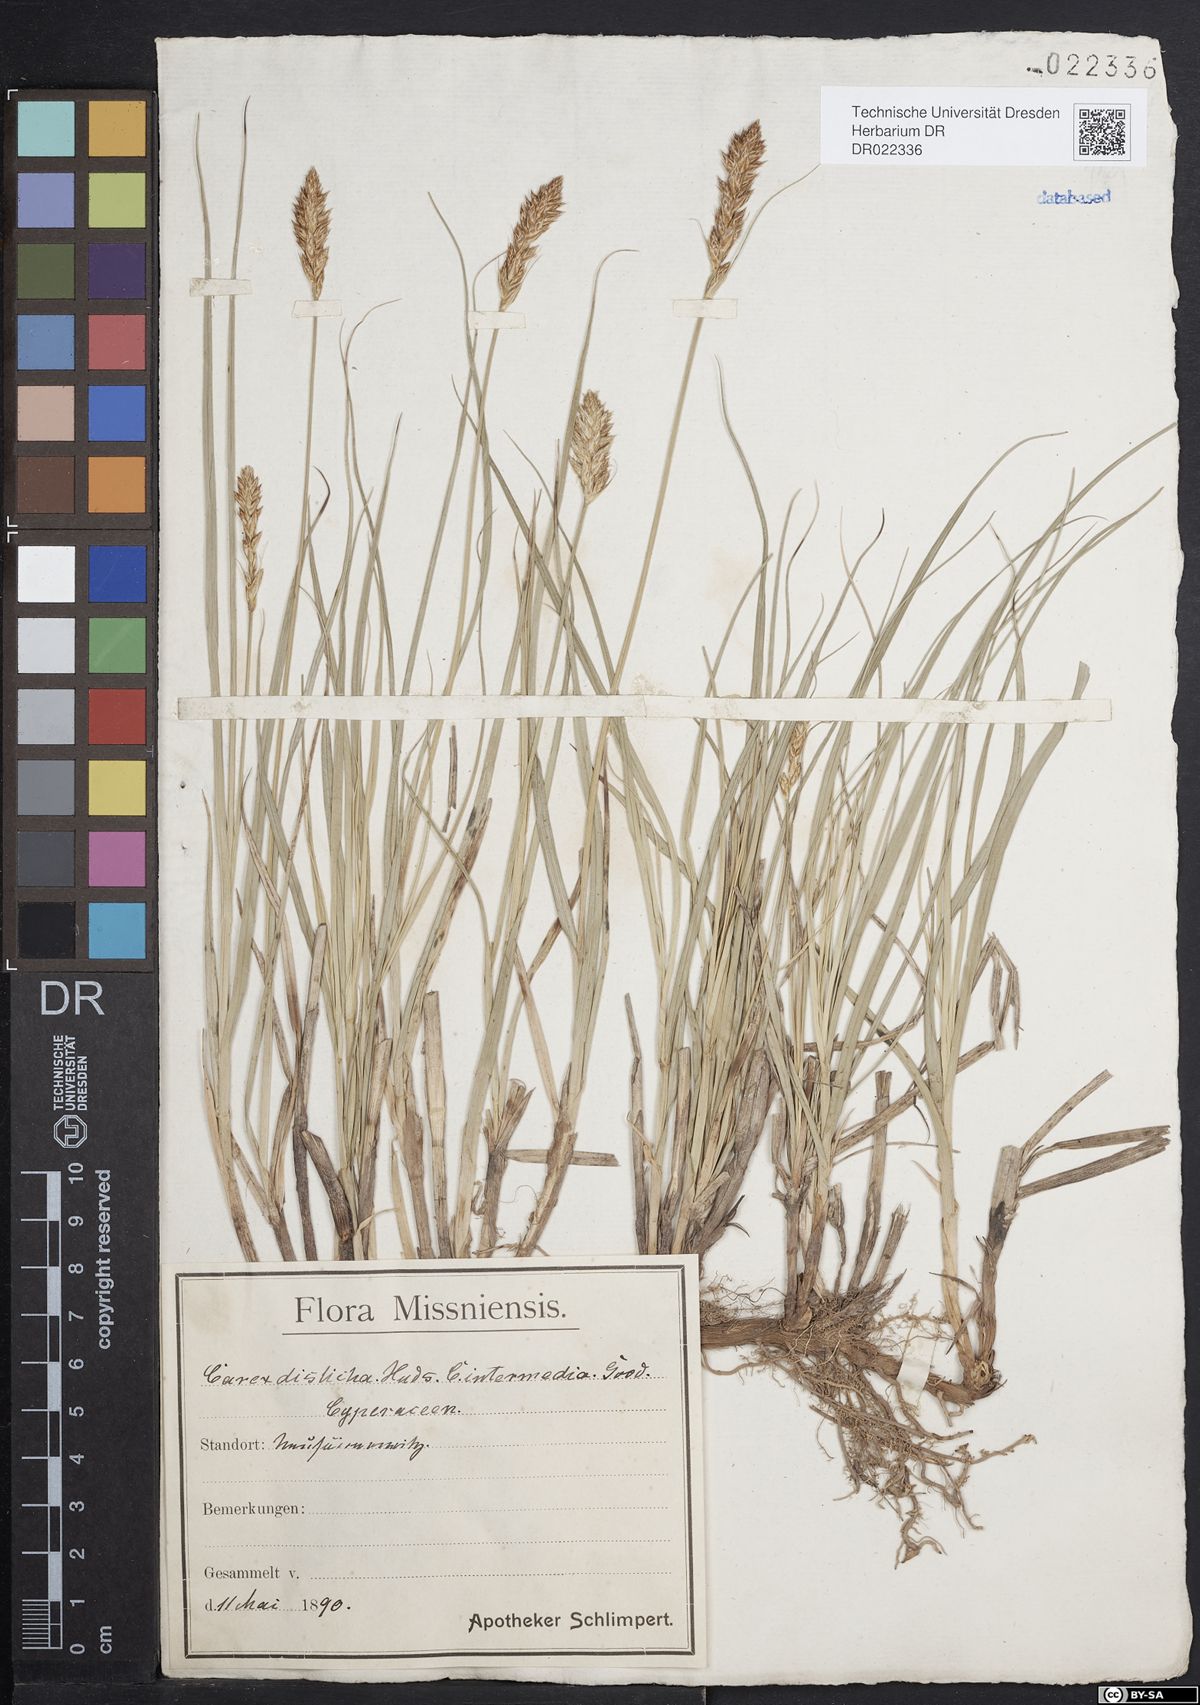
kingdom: Plantae
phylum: Tracheophyta
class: Liliopsida
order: Poales
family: Cyperaceae
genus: Carex
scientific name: Carex disticha
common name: Brown sedge
